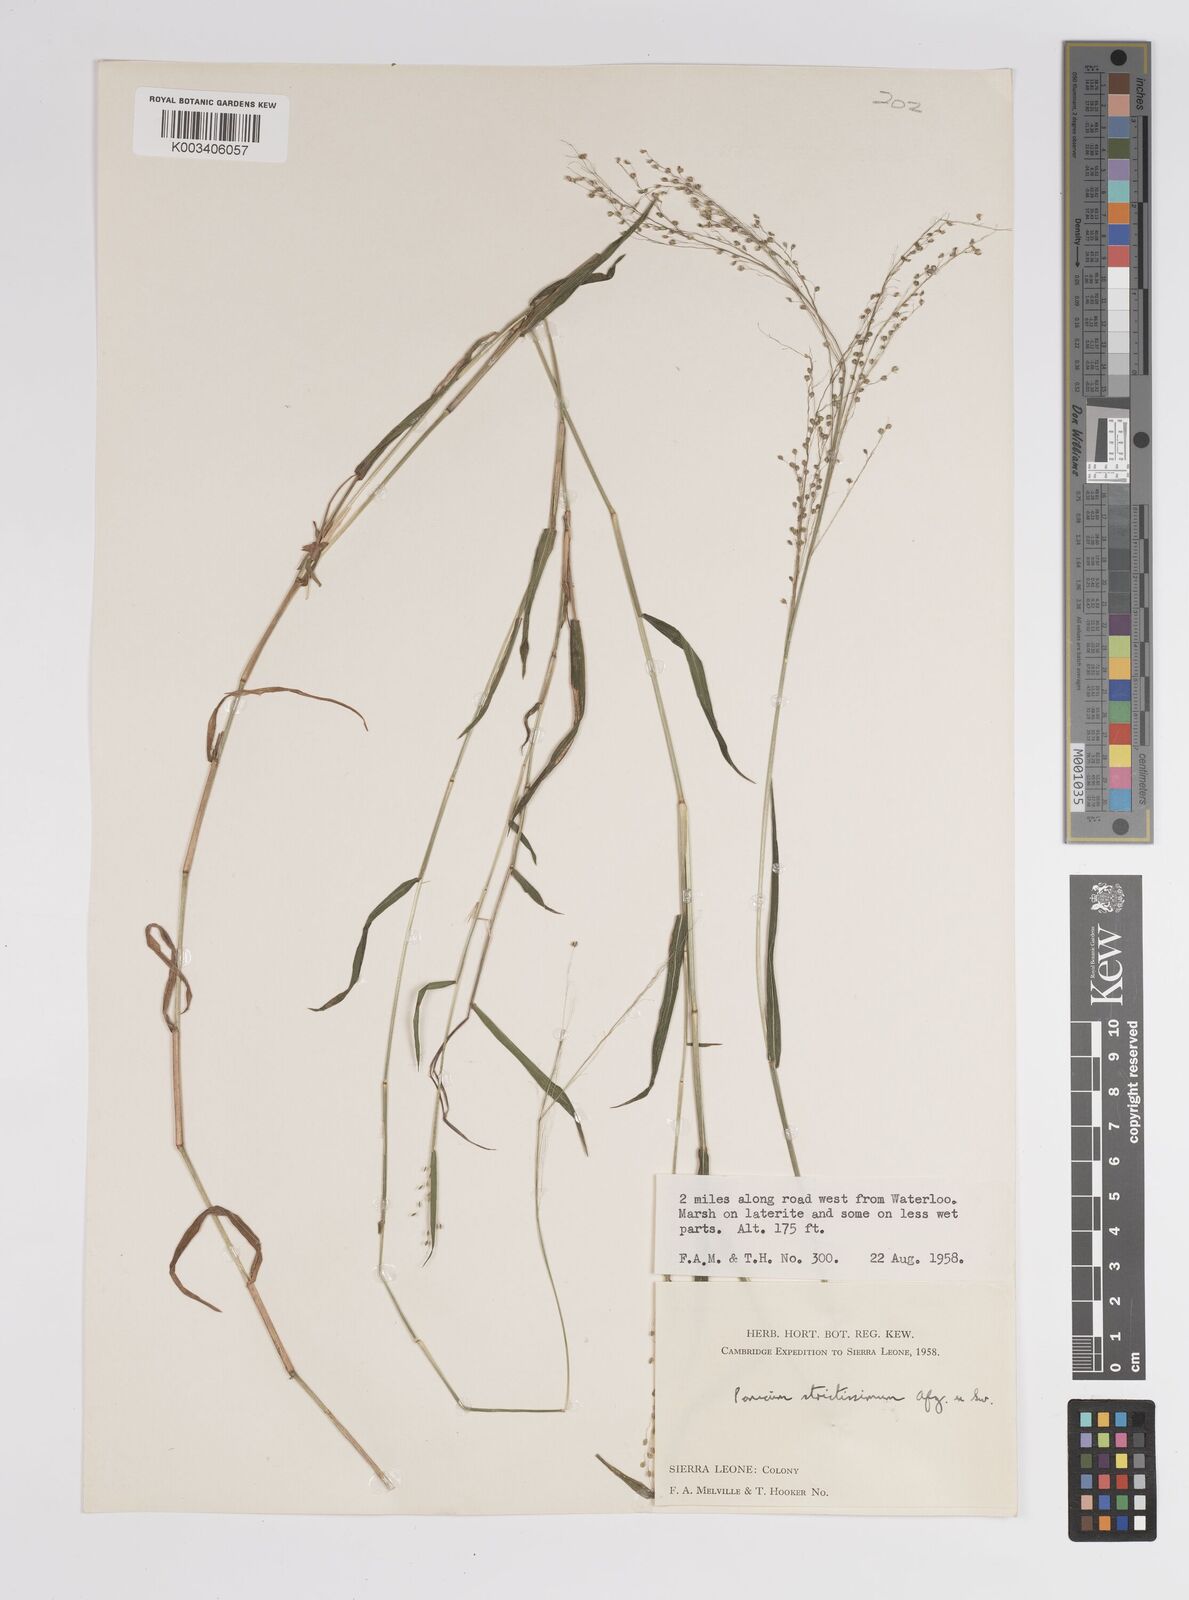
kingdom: Plantae
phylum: Tracheophyta
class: Liliopsida
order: Poales
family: Poaceae
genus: Trichanthecium
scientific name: Trichanthecium strictissimum
